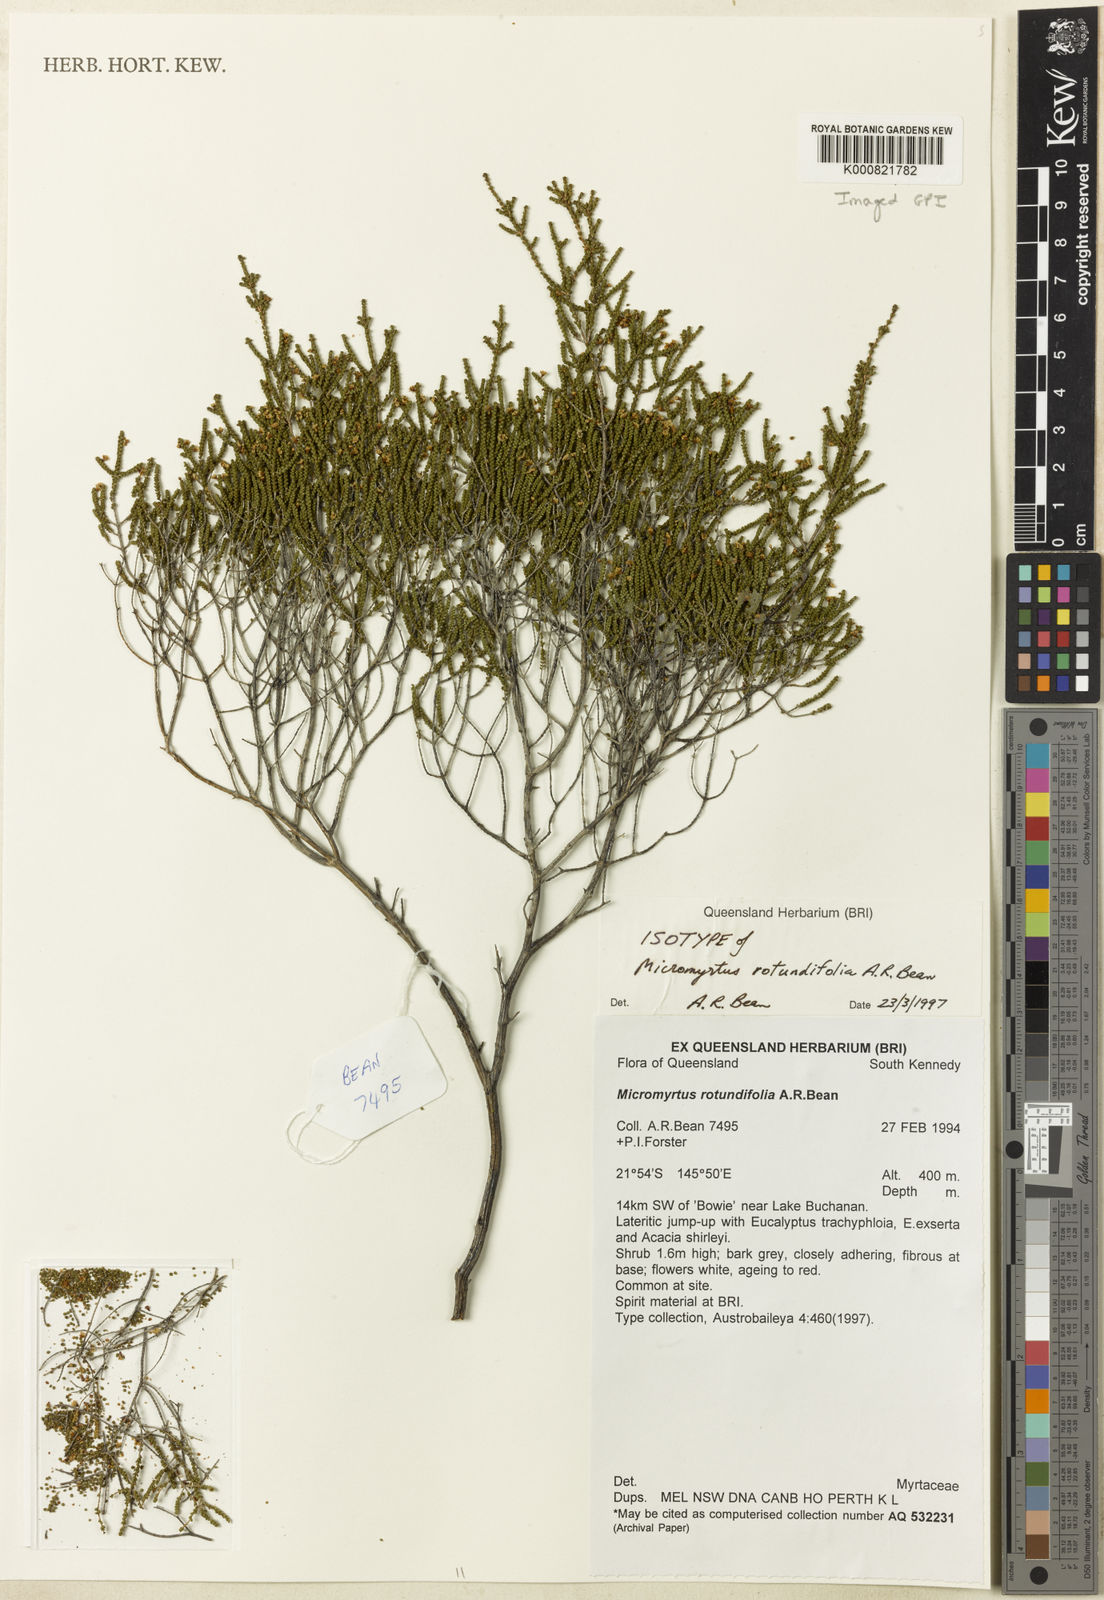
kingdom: Plantae
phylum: Tracheophyta
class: Magnoliopsida
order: Myrtales
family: Myrtaceae
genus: Micromyrtus
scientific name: Micromyrtus rotundifolia
